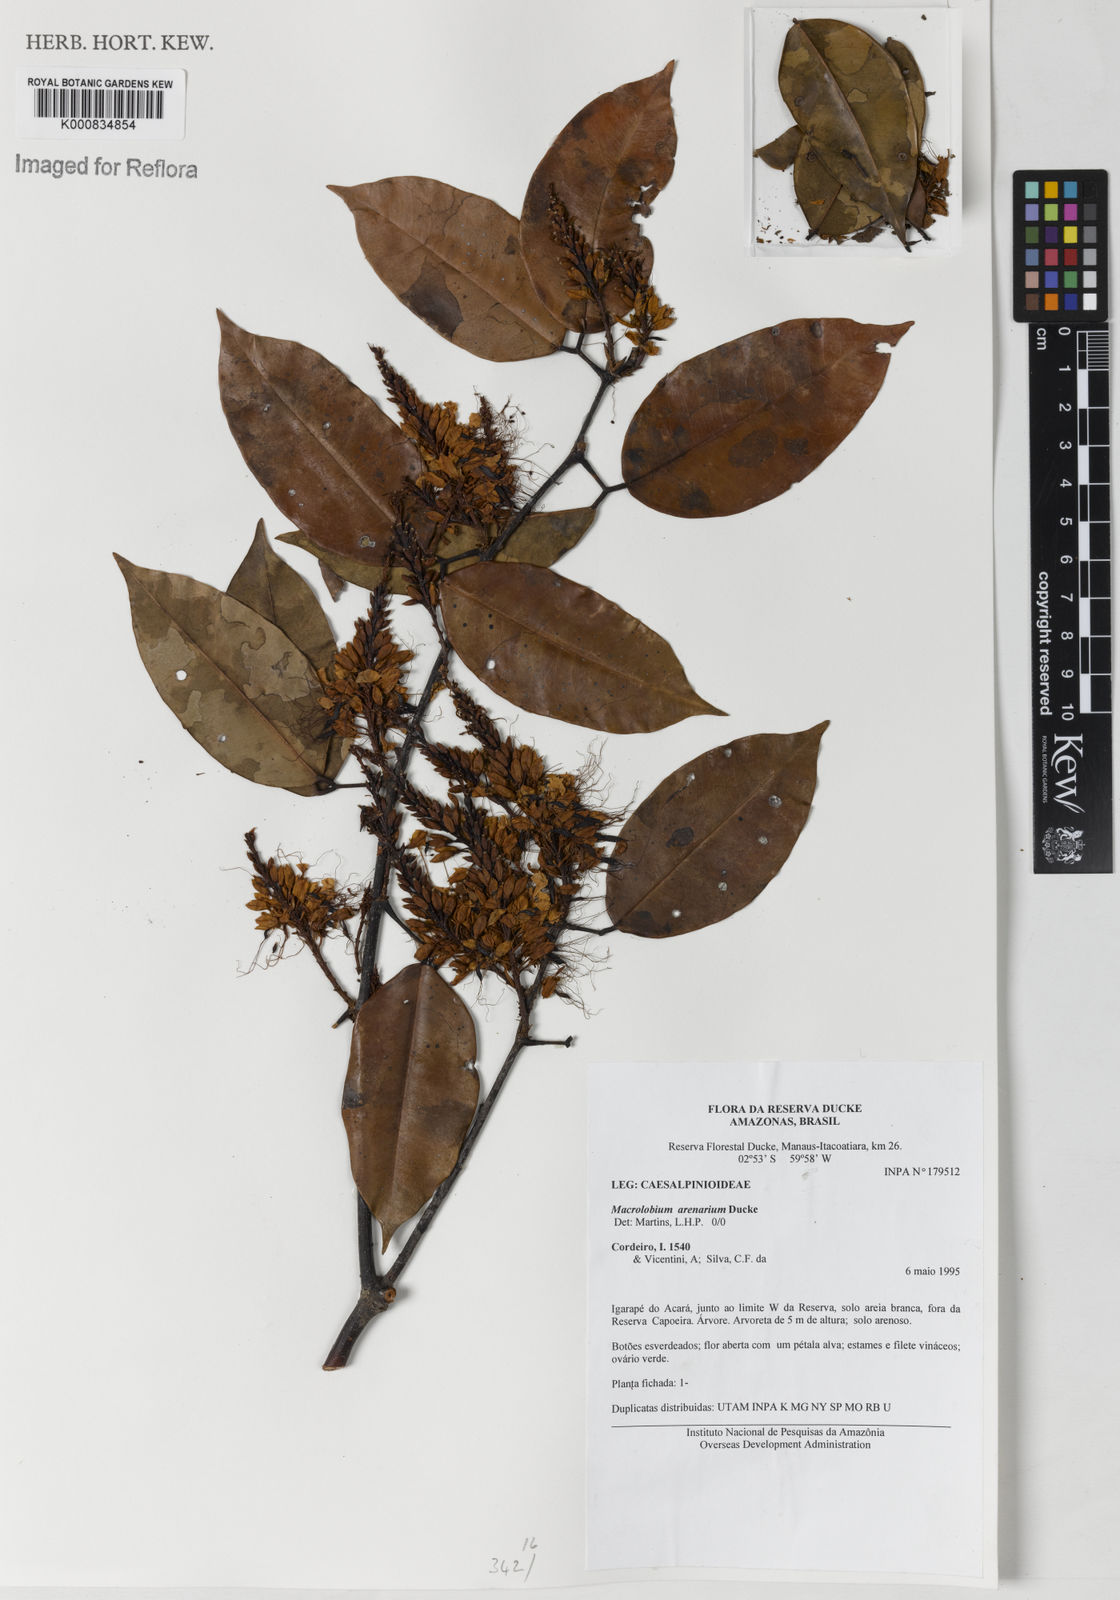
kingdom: Plantae
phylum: Tracheophyta
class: Magnoliopsida
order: Fabales
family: Fabaceae
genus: Macrolobium
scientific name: Macrolobium arenarium
